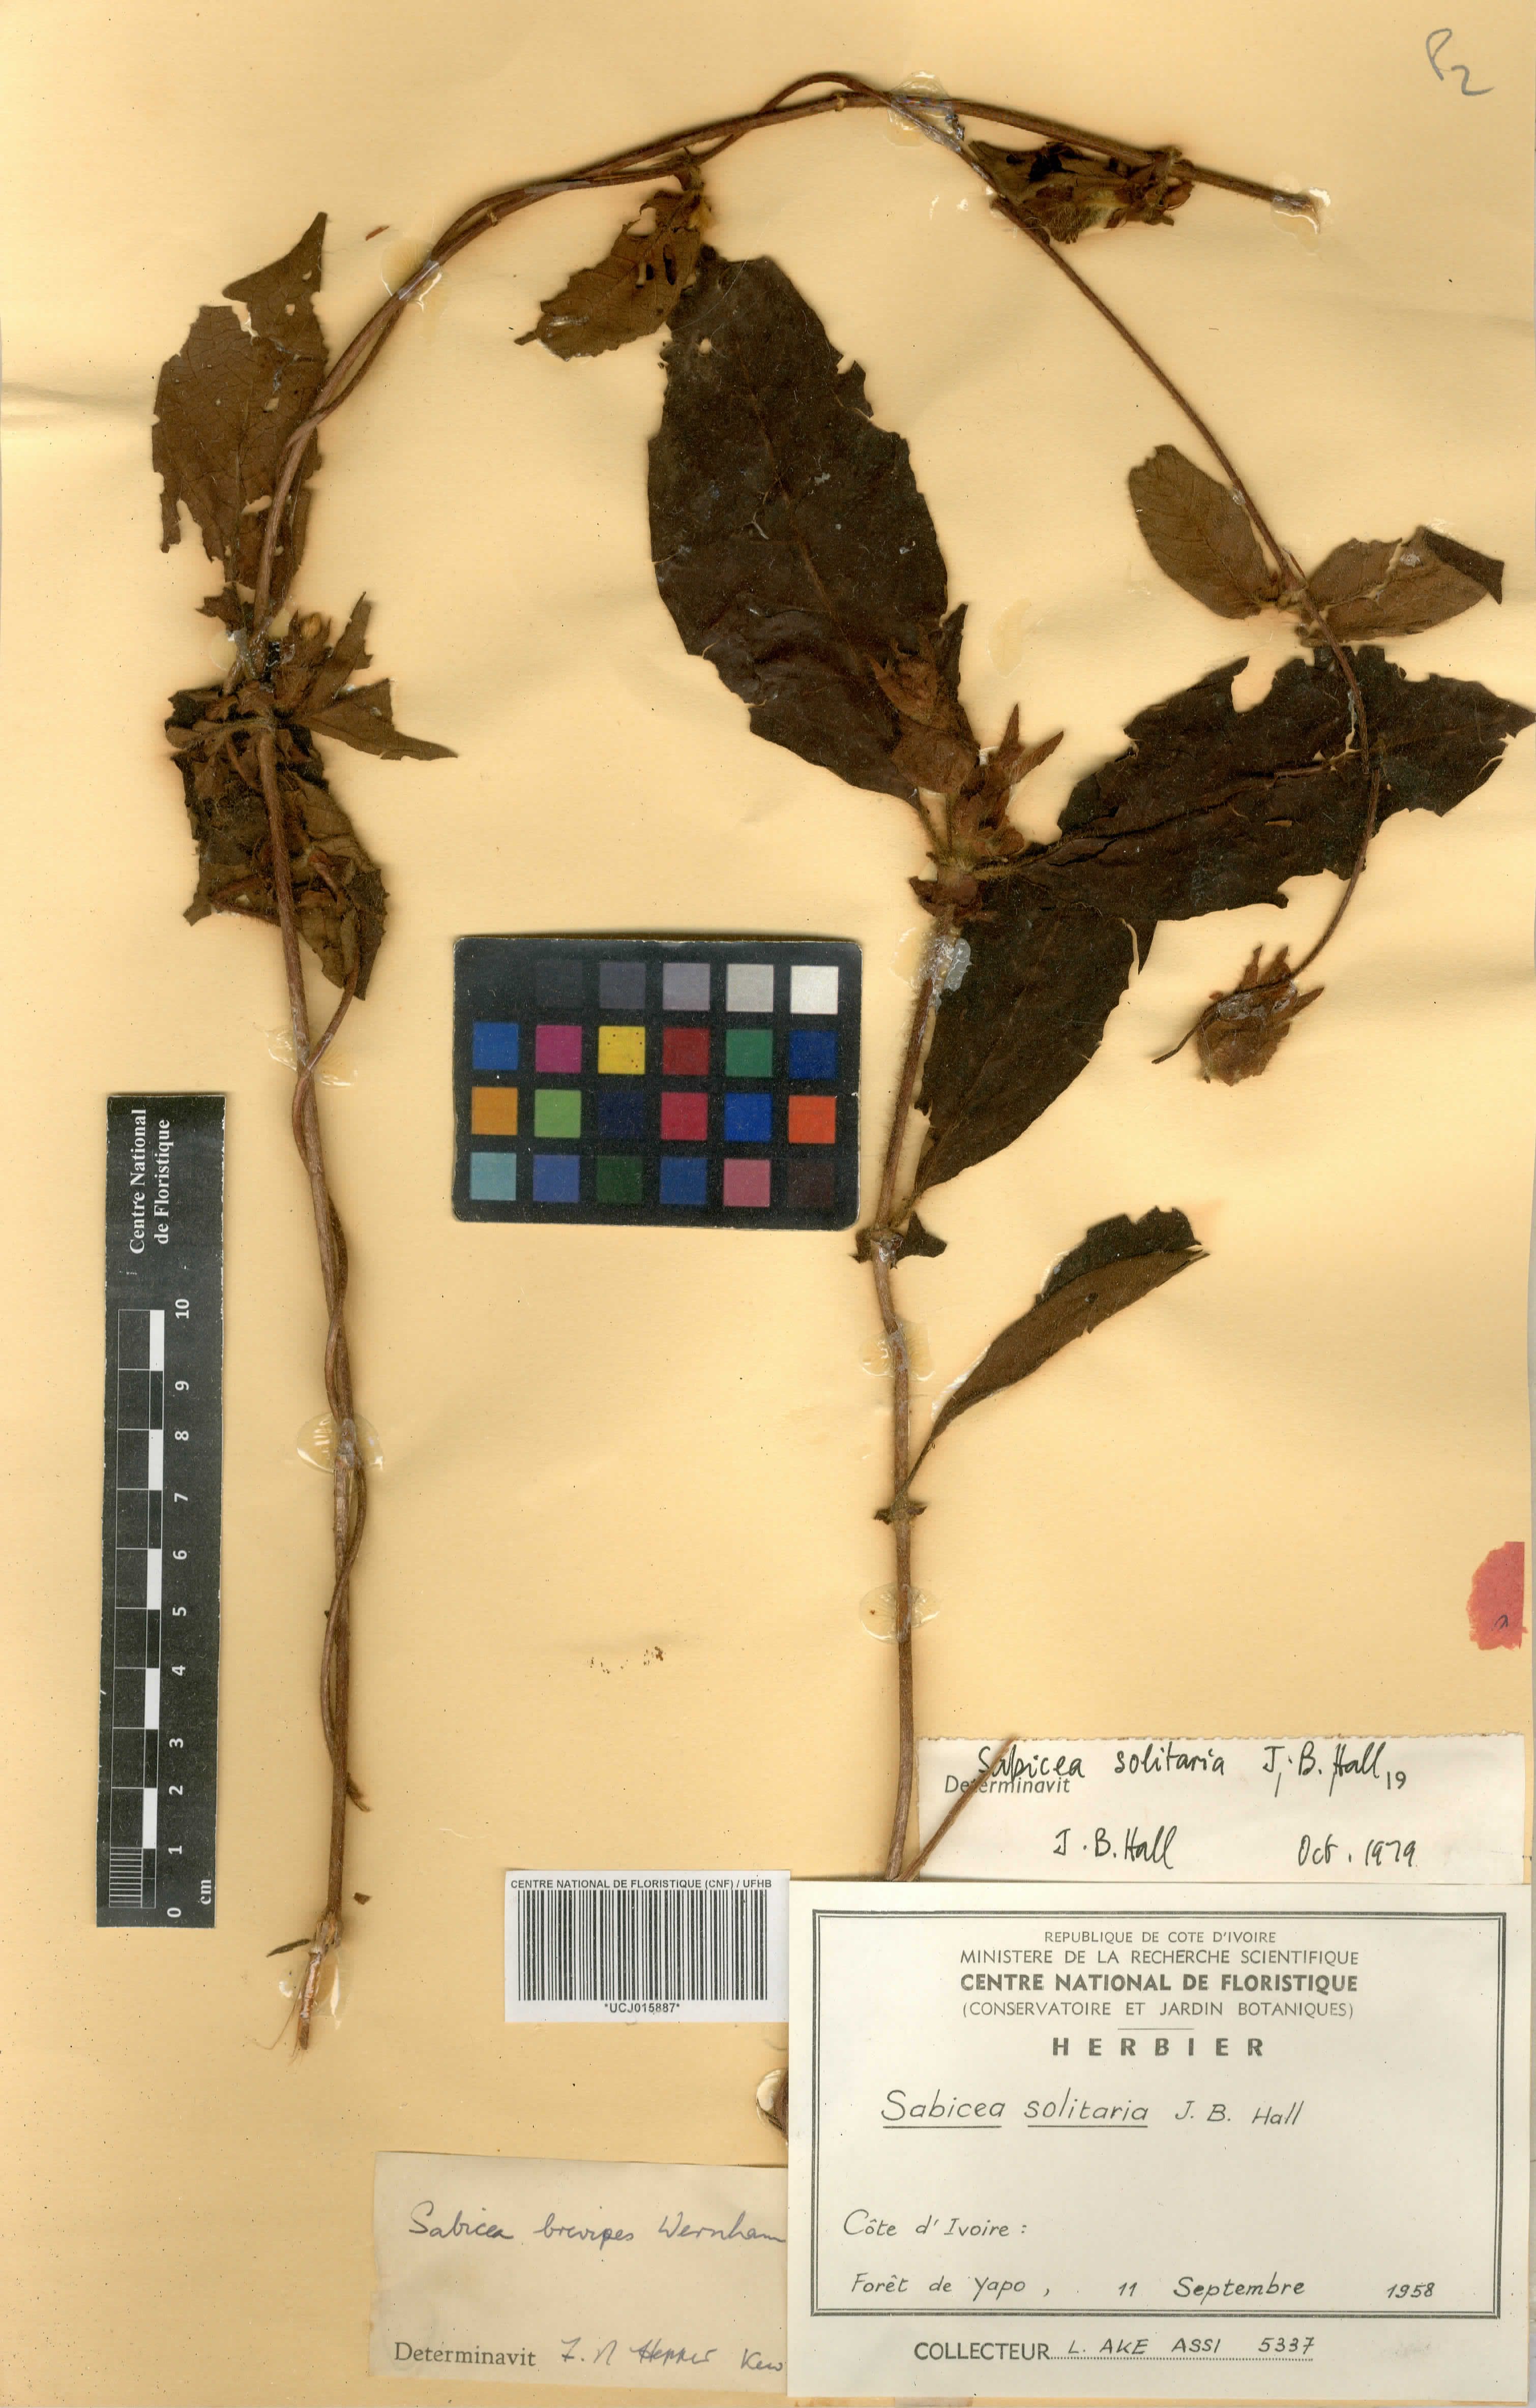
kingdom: Plantae
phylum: Tracheophyta
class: Magnoliopsida
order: Gentianales
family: Rubiaceae
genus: Sabicea
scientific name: Sabicea solitaria
